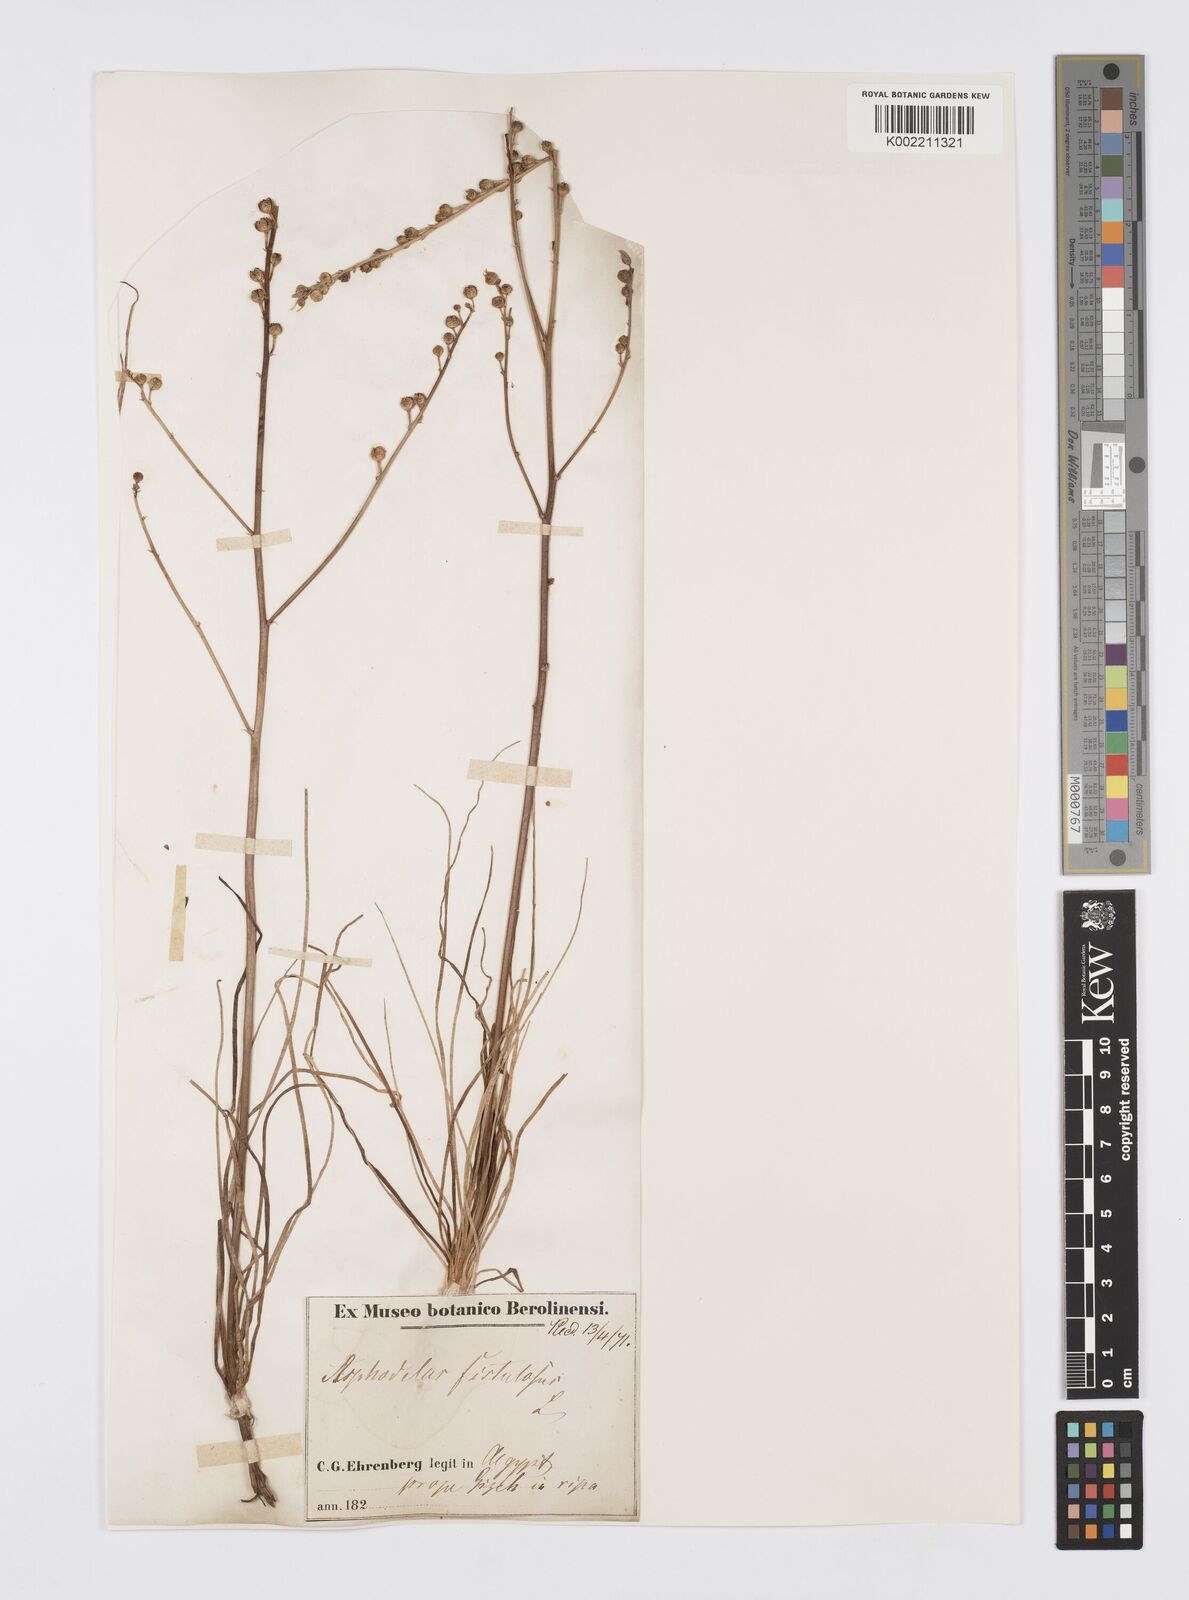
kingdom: Plantae
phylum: Tracheophyta
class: Liliopsida
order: Asparagales
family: Asphodelaceae
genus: Asphodeline
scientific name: Asphodeline tenuior
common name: Thin asphodeline
